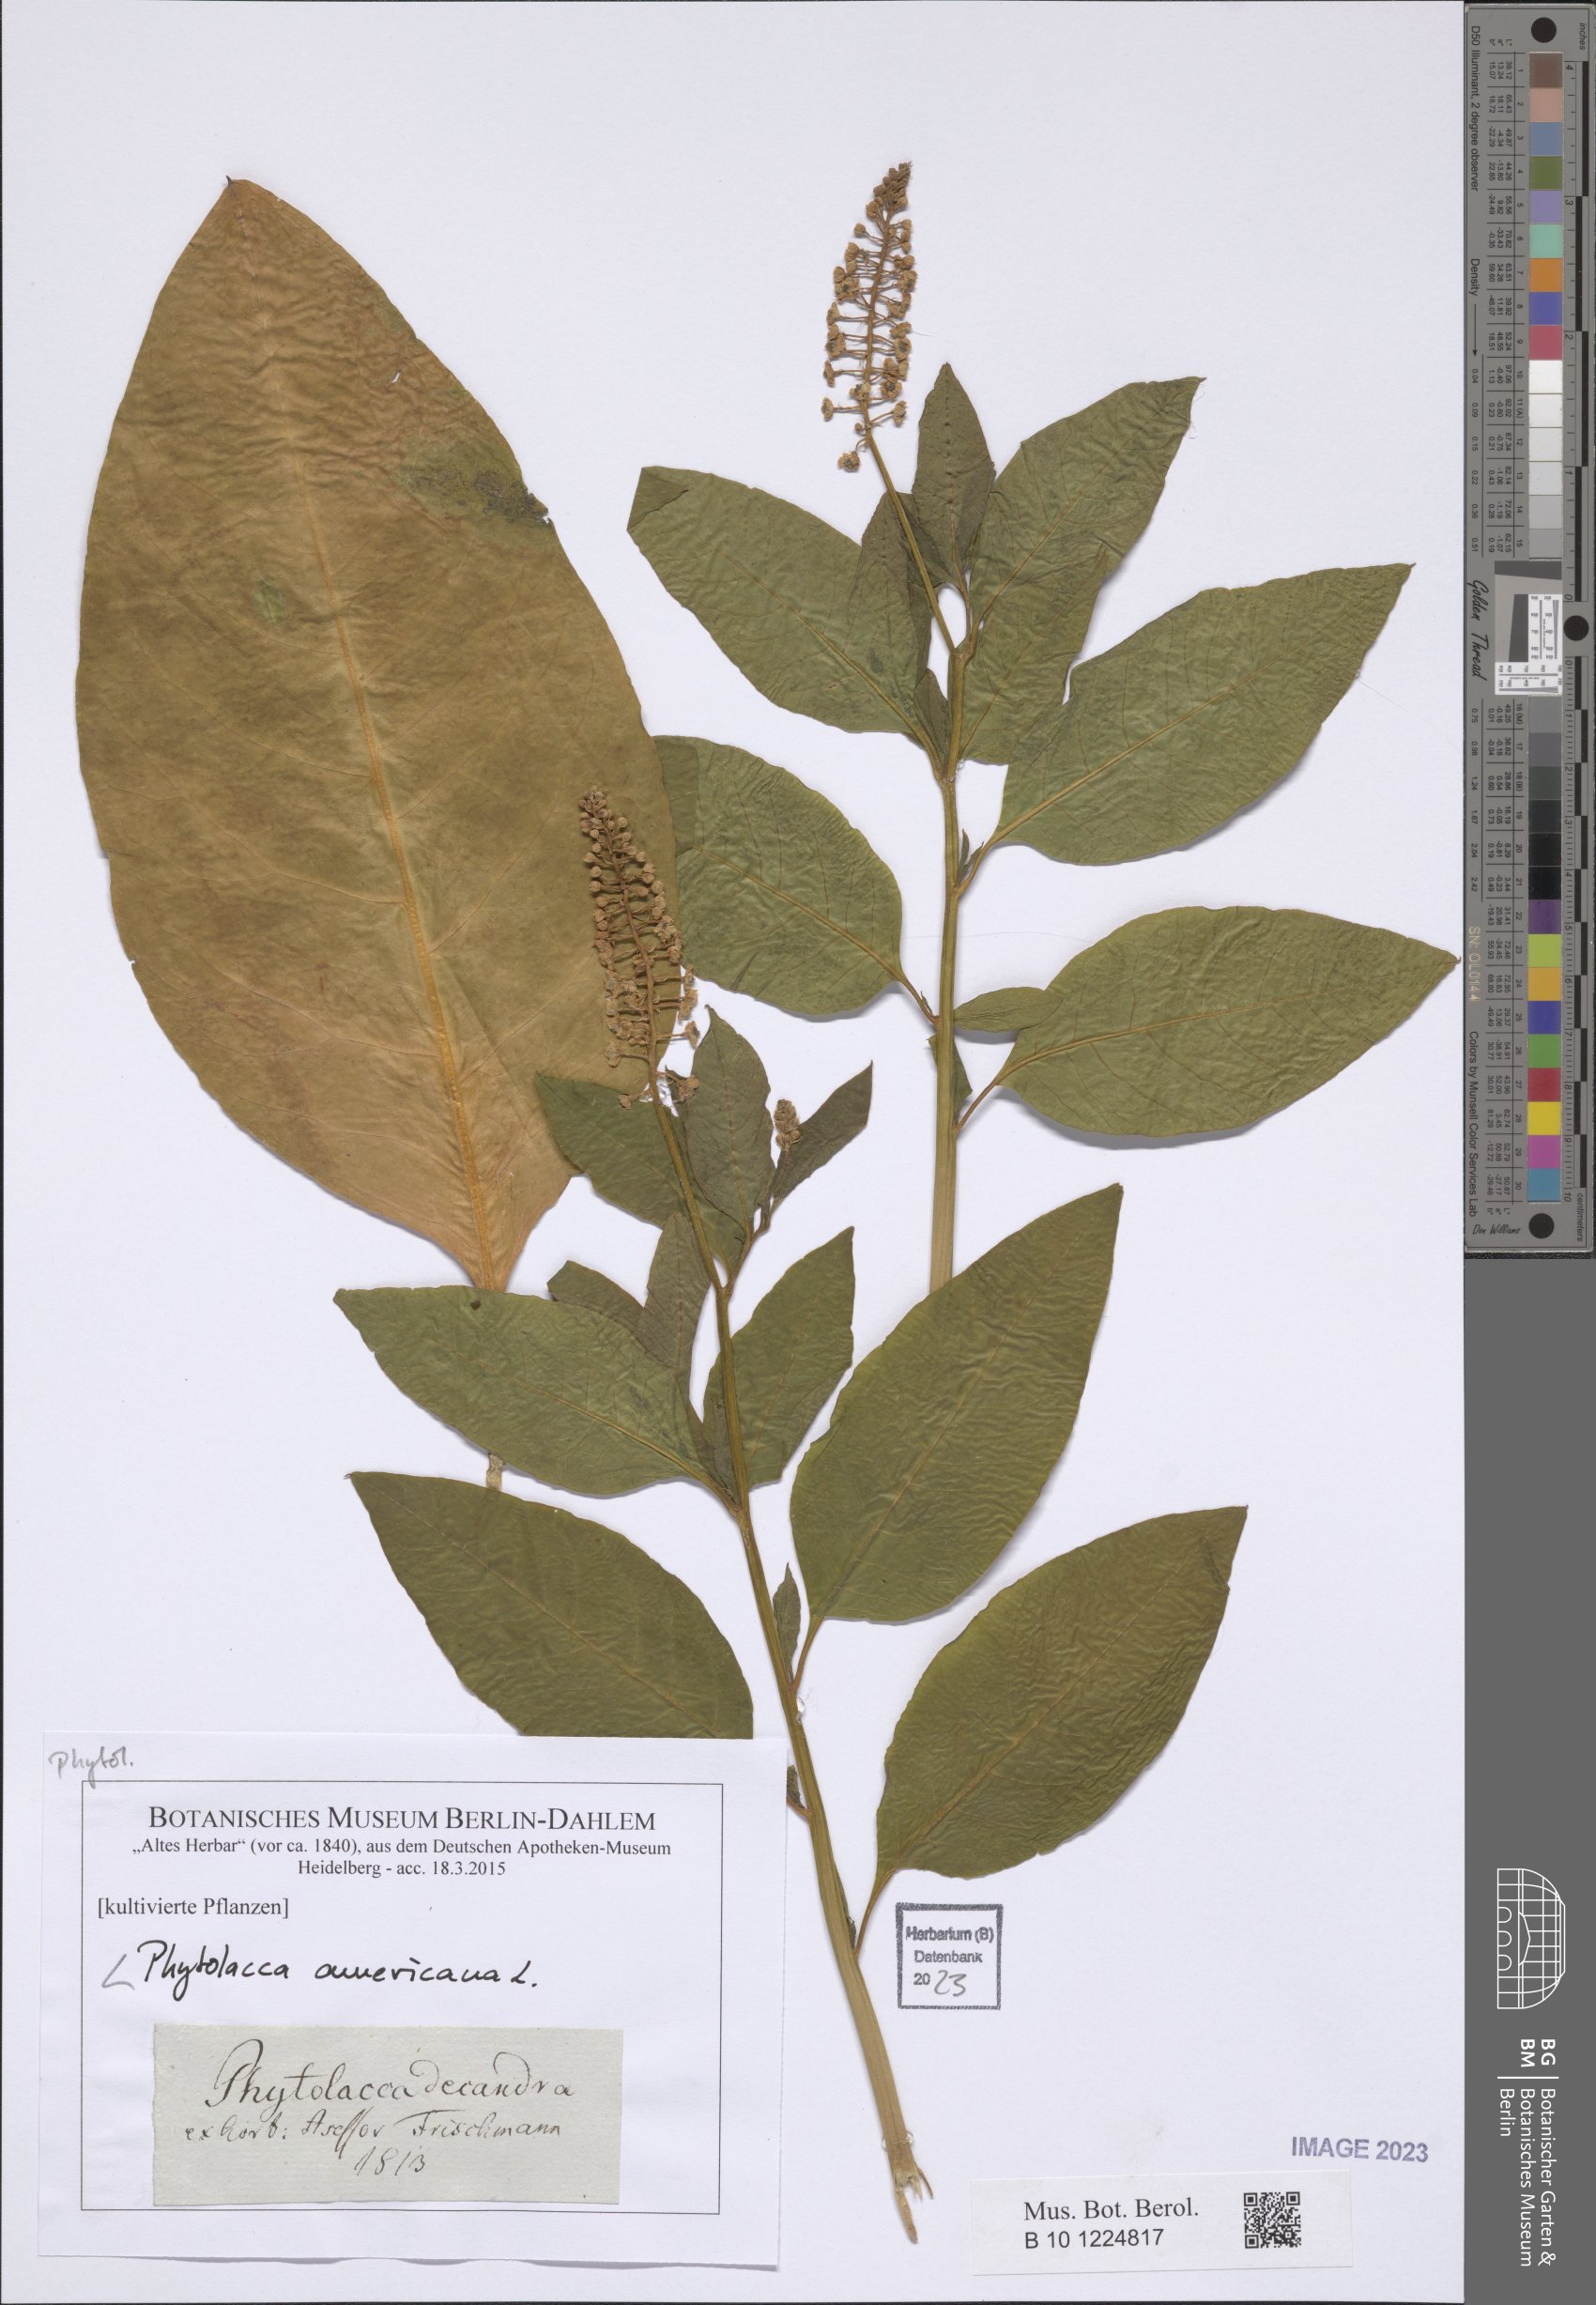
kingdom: Plantae
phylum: Tracheophyta
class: Magnoliopsida
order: Caryophyllales
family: Phytolaccaceae
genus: Phytolacca
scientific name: Phytolacca americana
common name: American pokeweed
